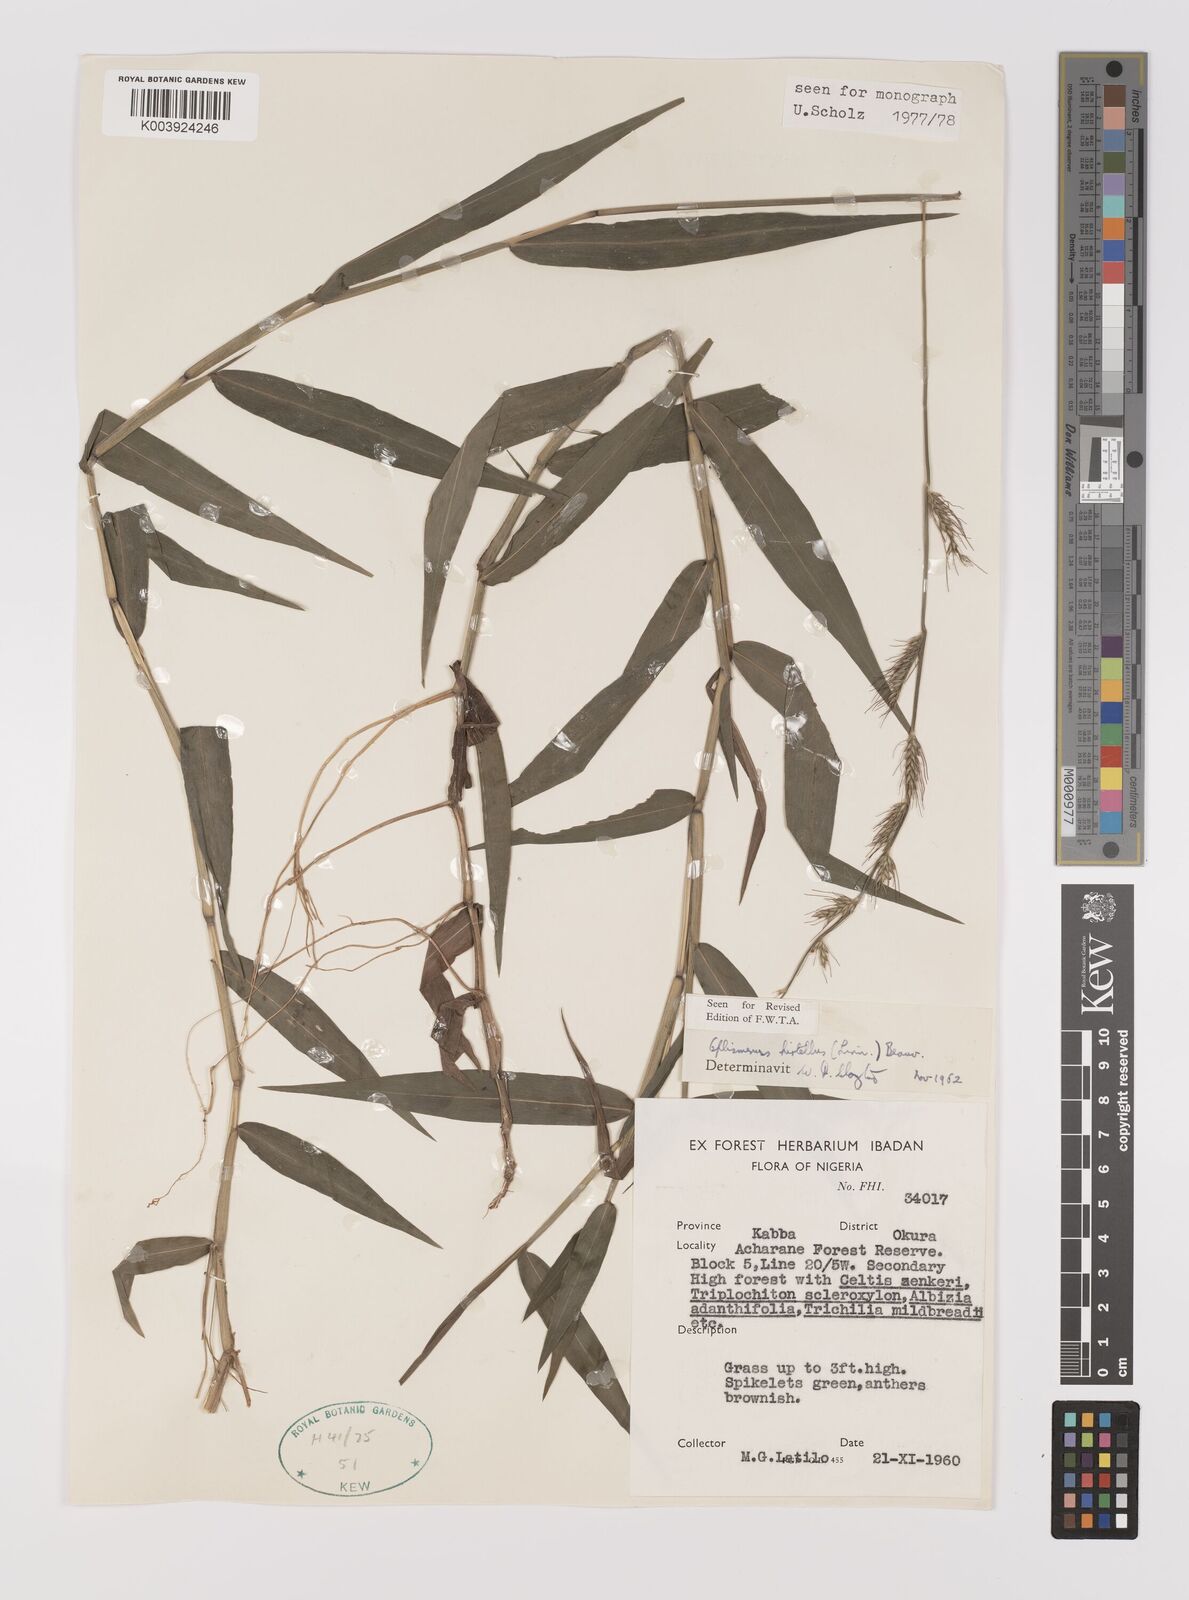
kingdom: Plantae
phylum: Tracheophyta
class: Liliopsida
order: Poales
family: Poaceae
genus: Oplismenus
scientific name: Oplismenus hirtellus
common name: Basketgrass
